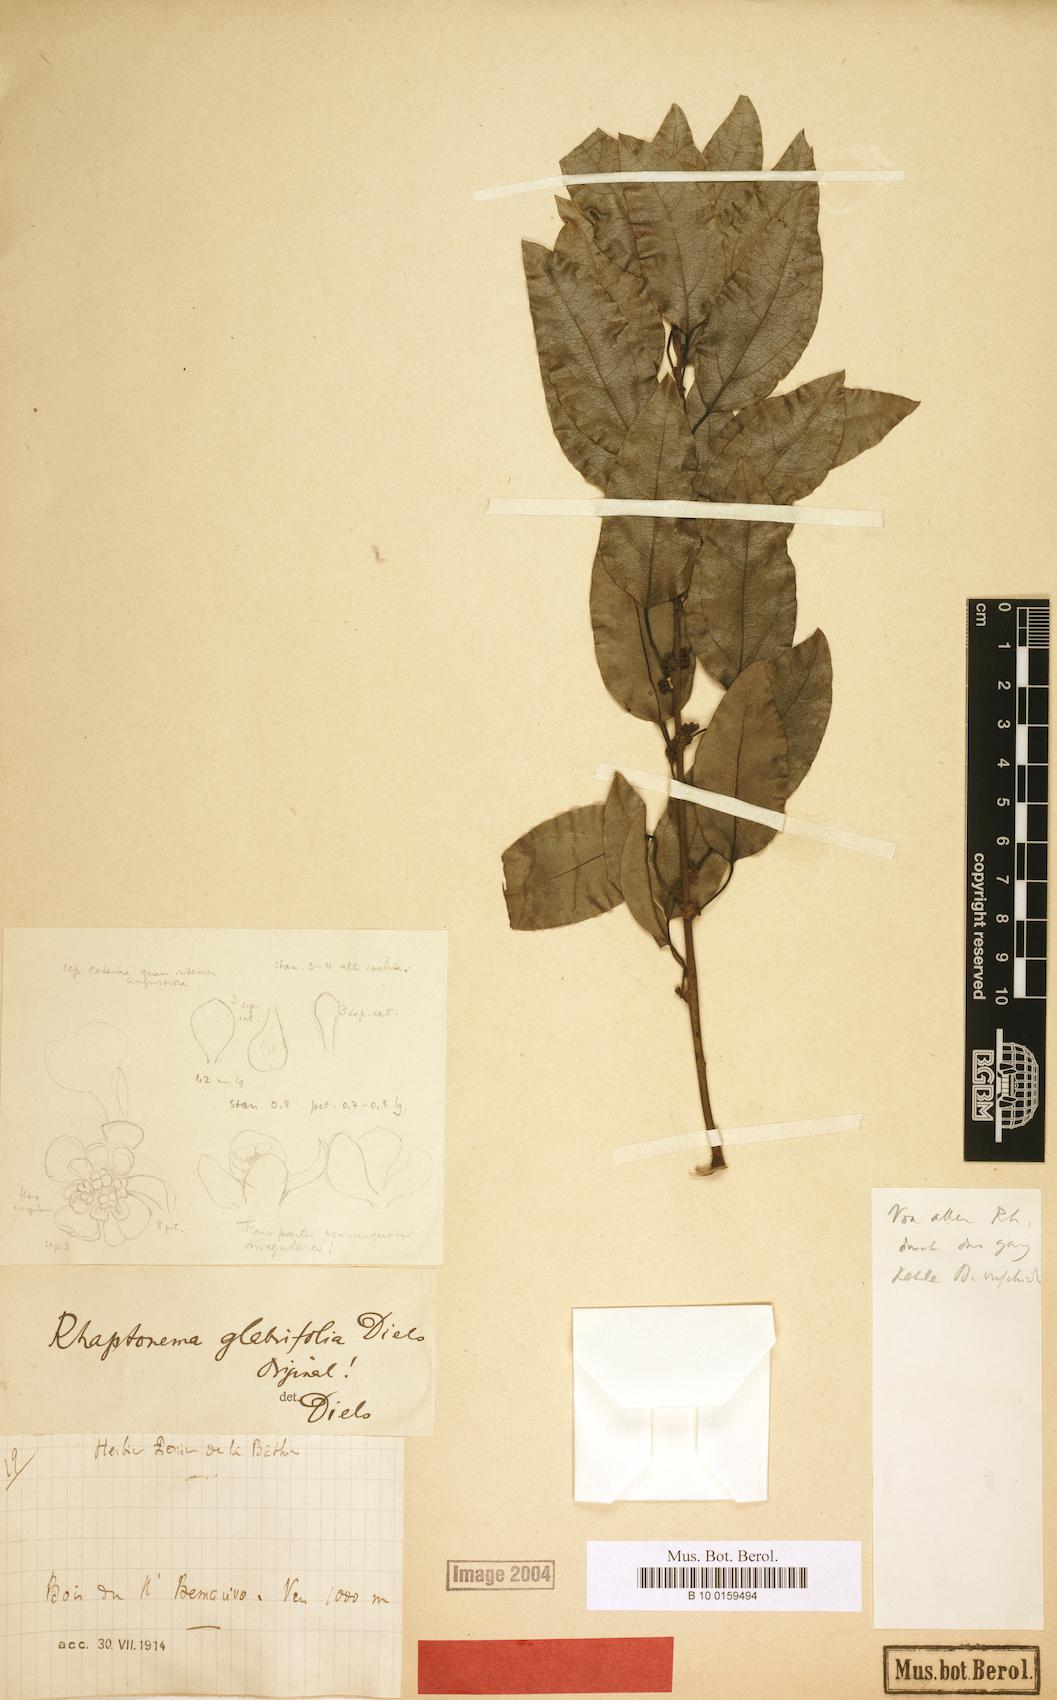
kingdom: Plantae
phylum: Tracheophyta
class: Magnoliopsida
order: Ranunculales
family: Menispermaceae
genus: Rhaptonema
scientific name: Rhaptonema glabrifolium
